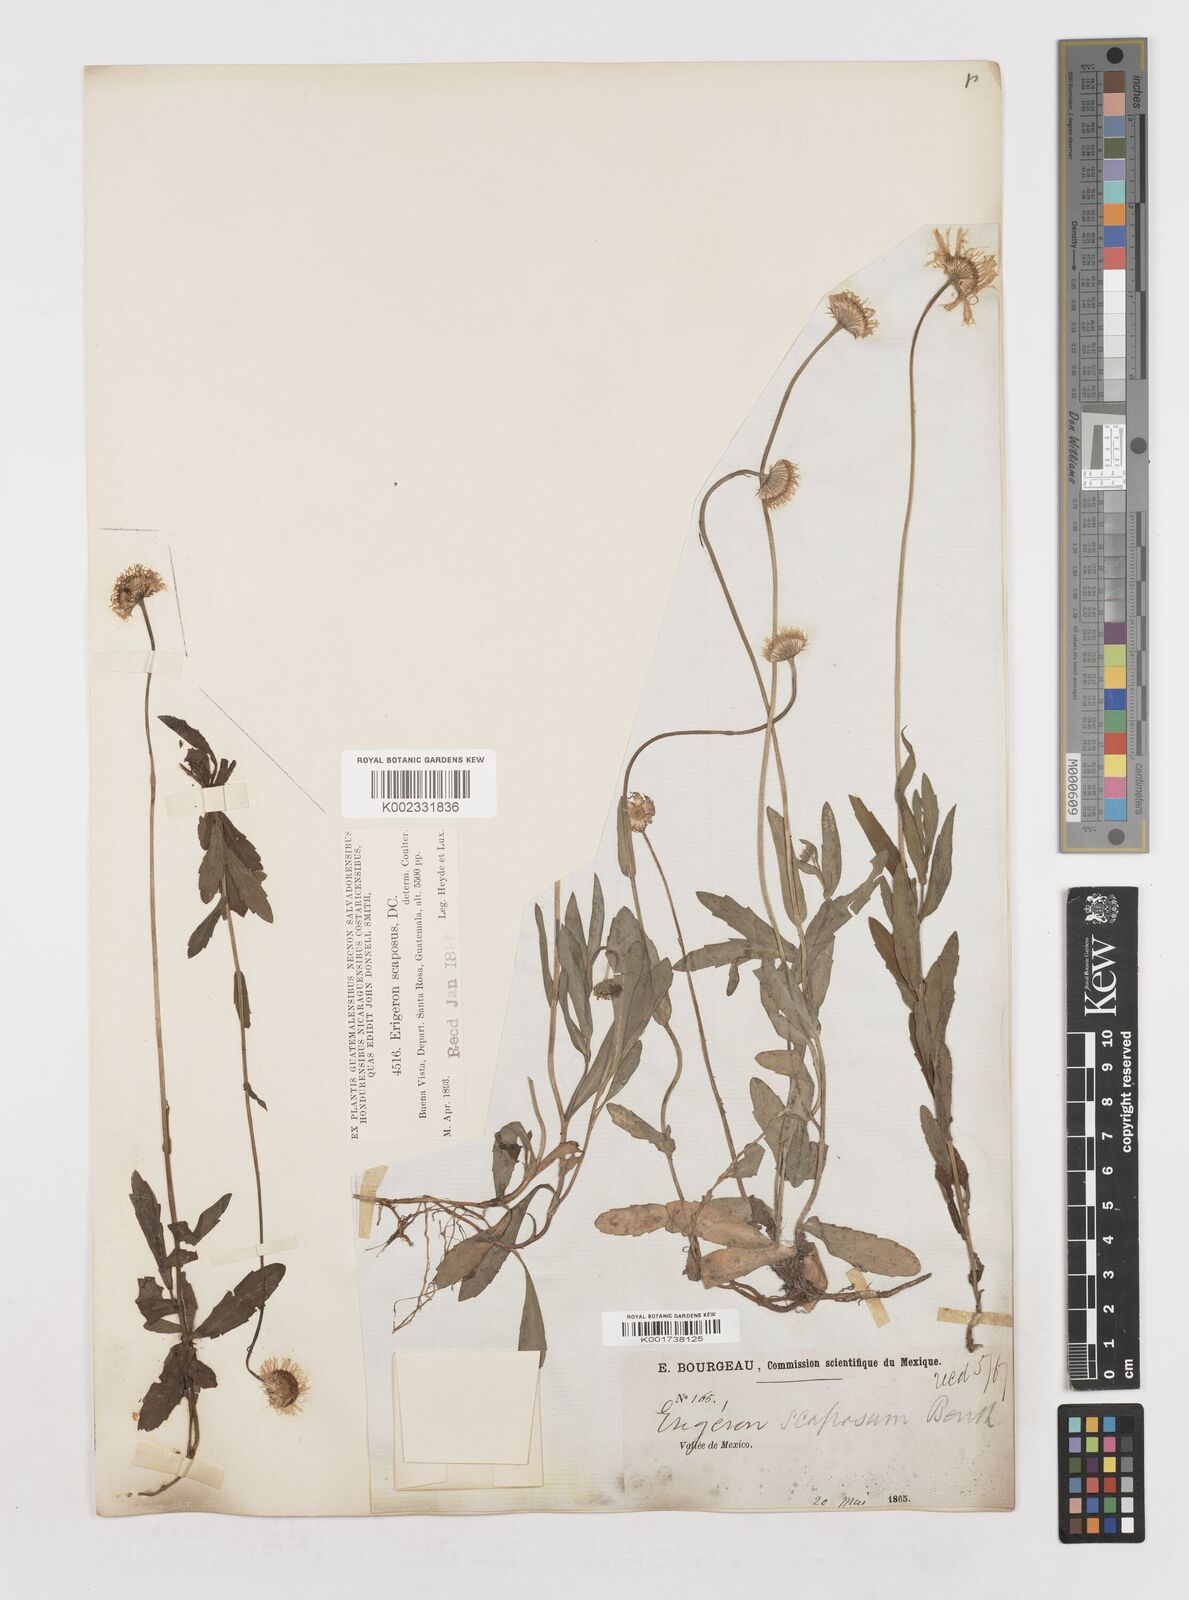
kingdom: Plantae
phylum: Tracheophyta
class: Magnoliopsida
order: Asterales
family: Asteraceae
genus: Erigeron
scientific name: Erigeron longipes
